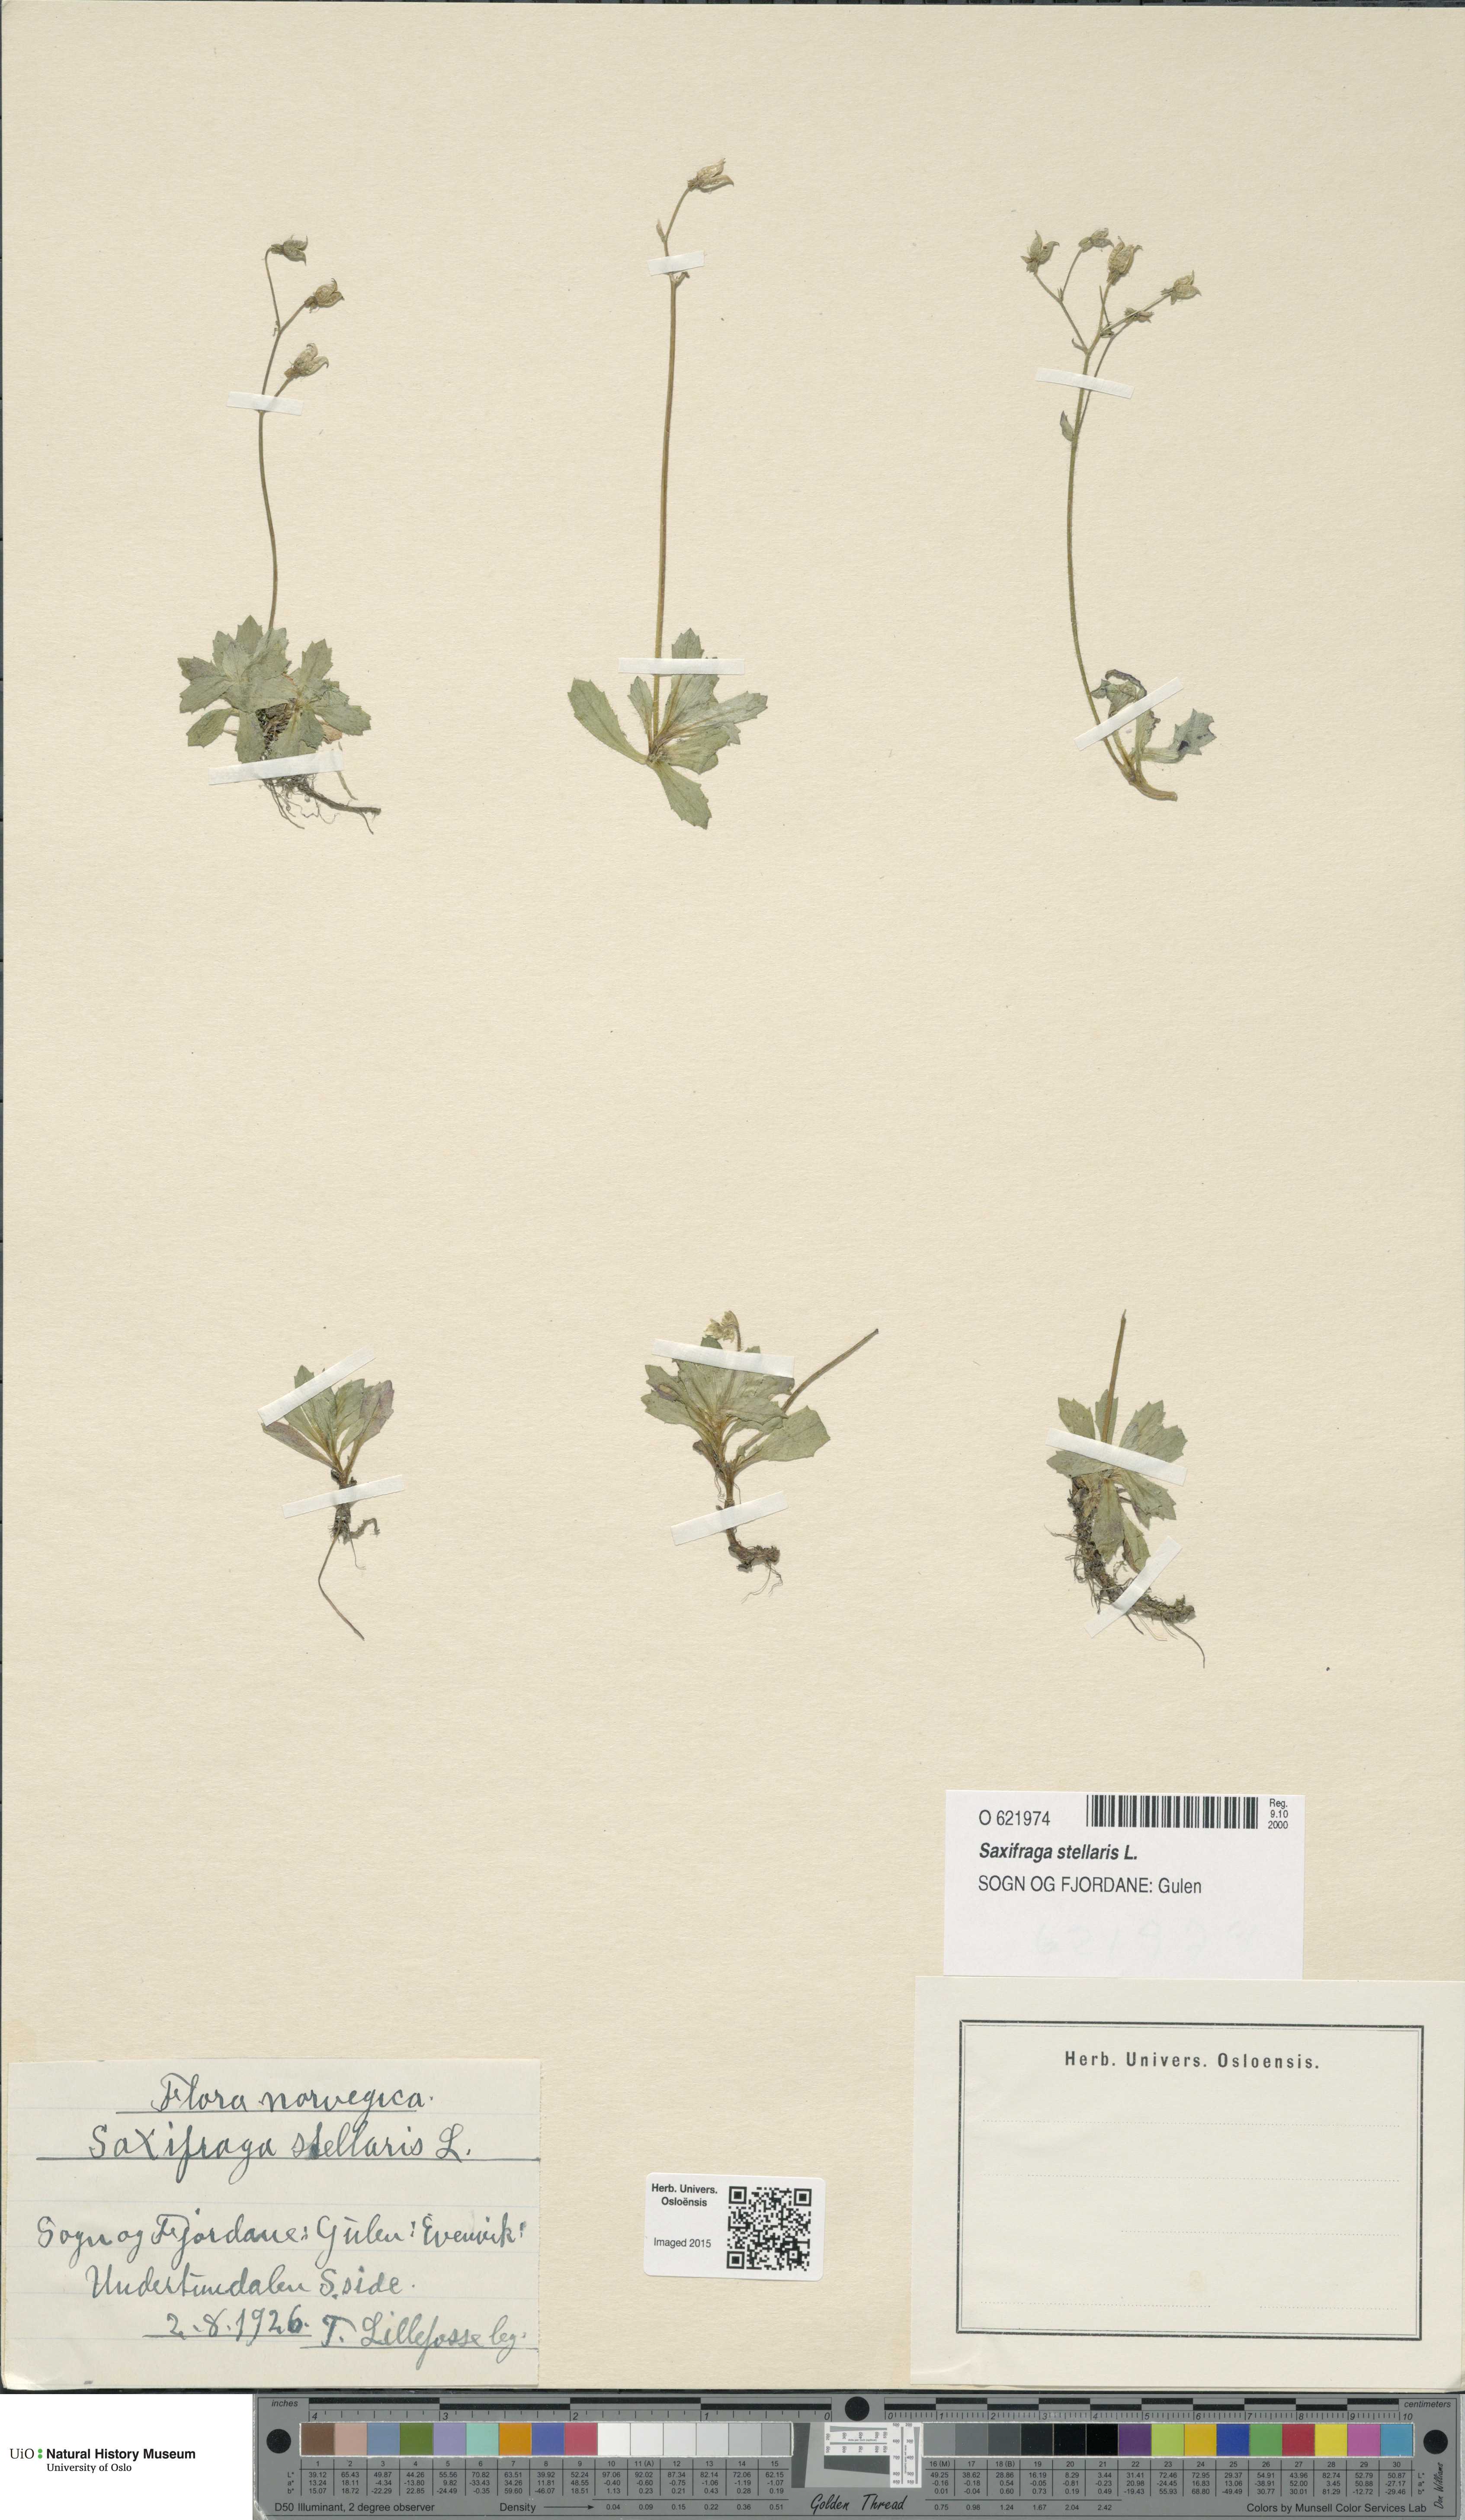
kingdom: Plantae
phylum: Tracheophyta
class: Magnoliopsida
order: Saxifragales
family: Saxifragaceae
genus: Micranthes
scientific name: Micranthes stellaris
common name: Starry saxifrage
